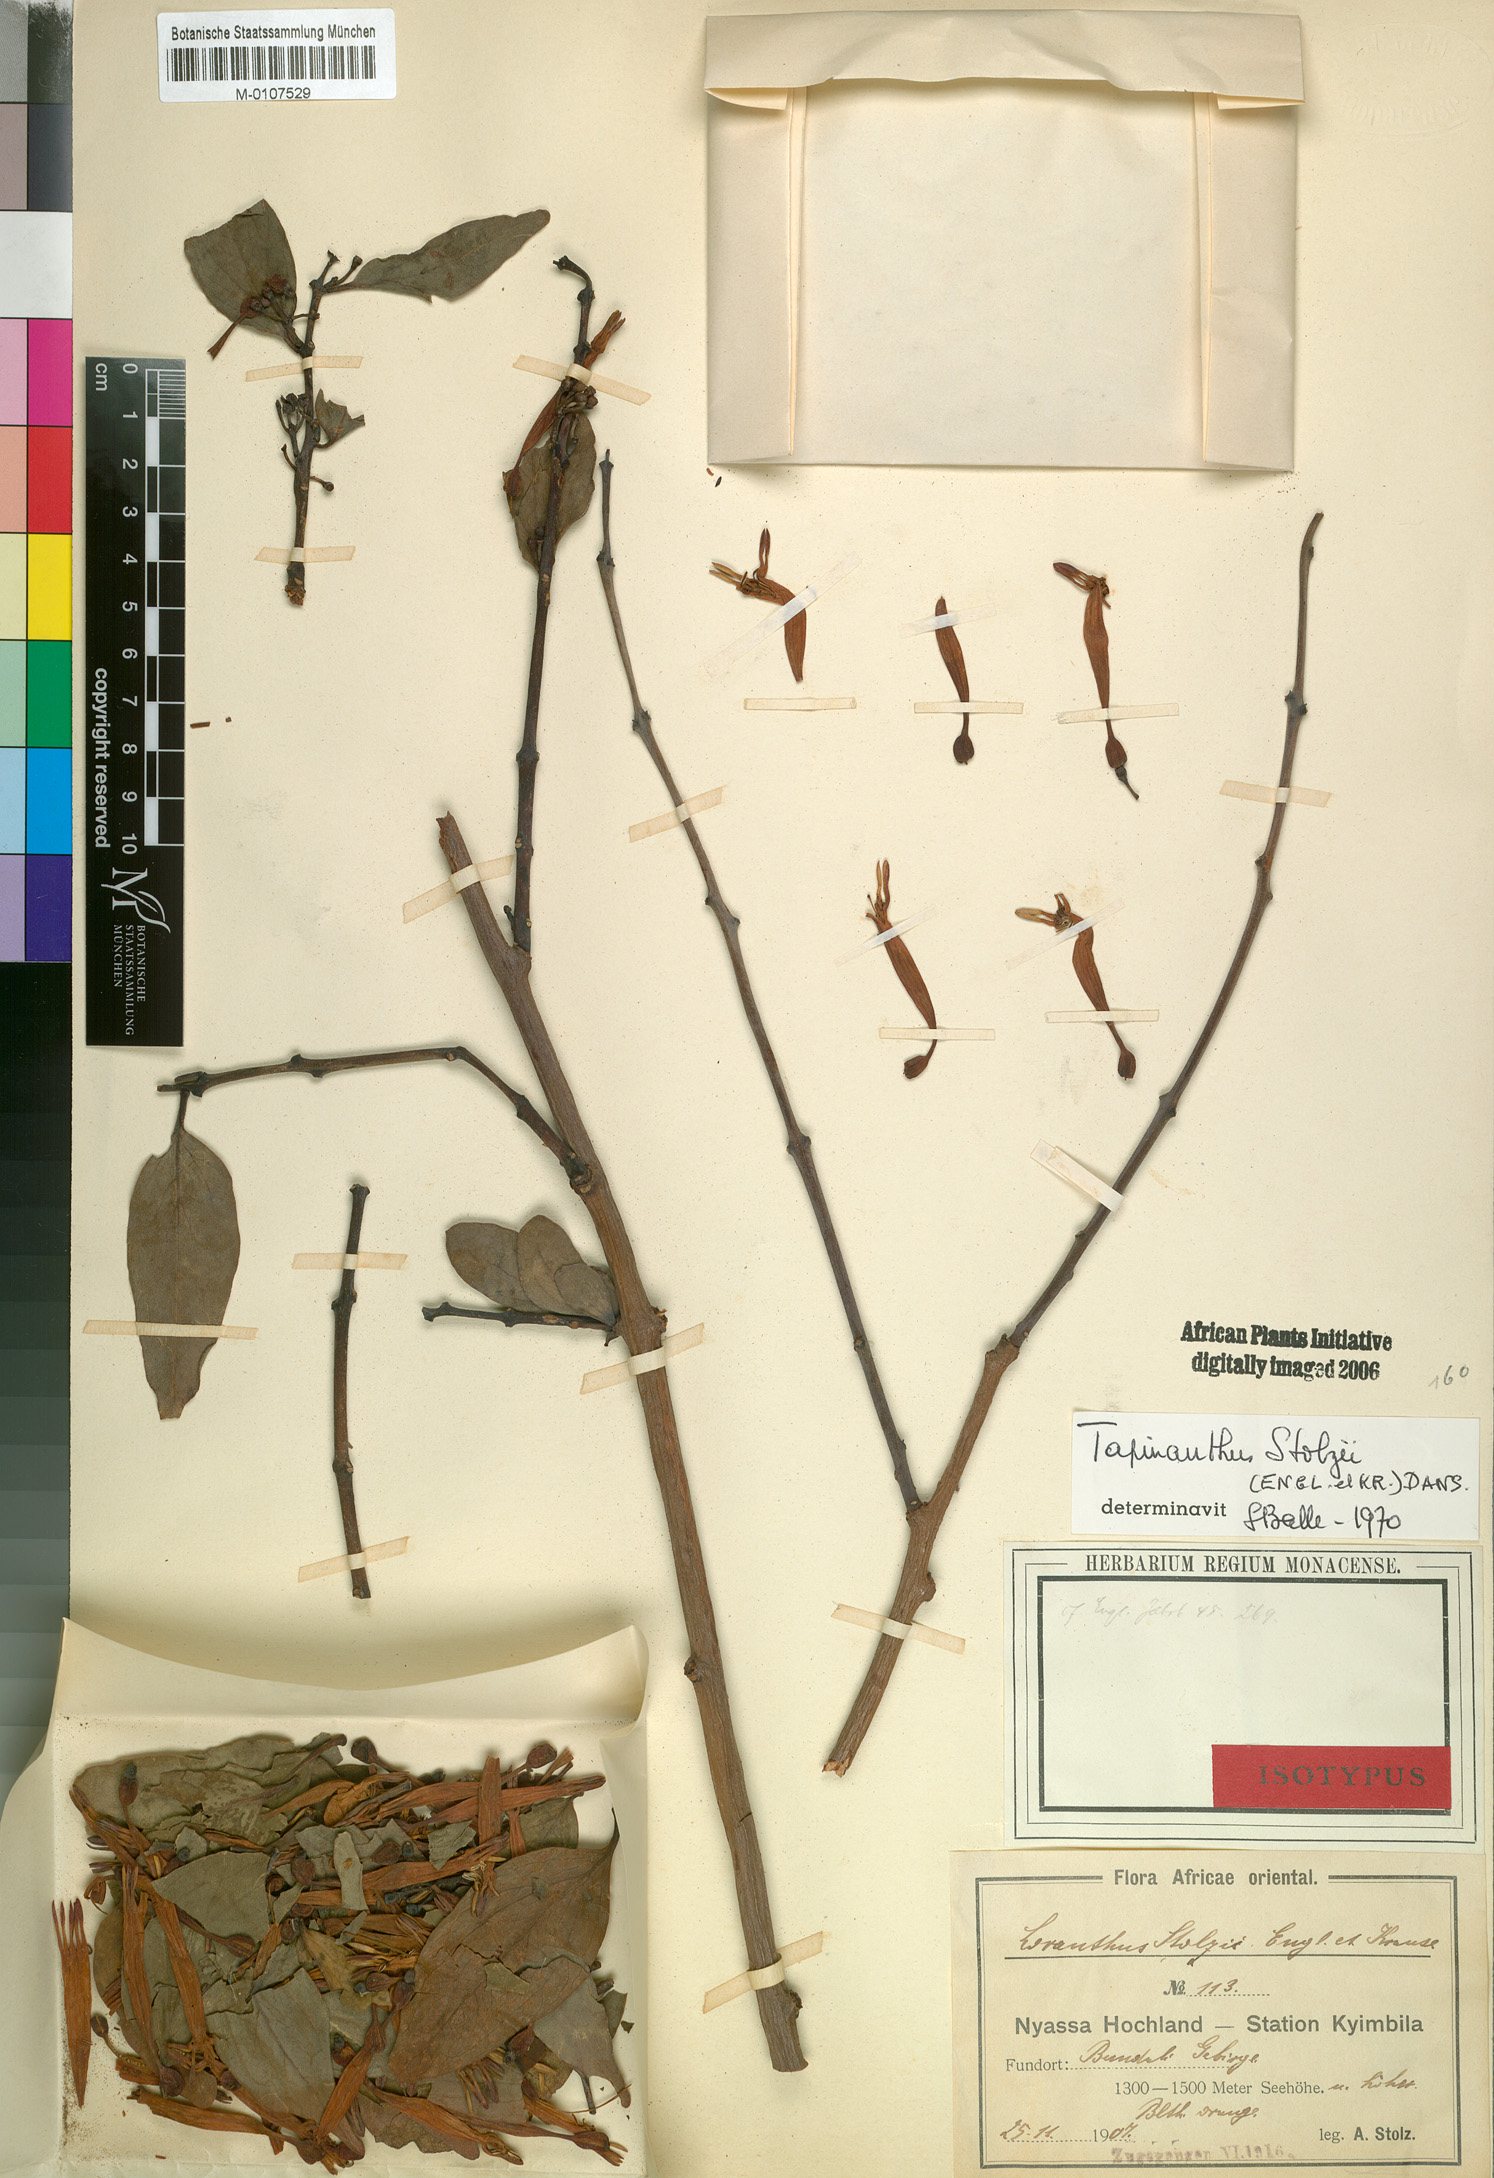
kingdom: Plantae
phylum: Tracheophyta
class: Magnoliopsida
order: Santalales
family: Loranthaceae
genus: Agelanthus
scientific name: Agelanthus nyasicus
